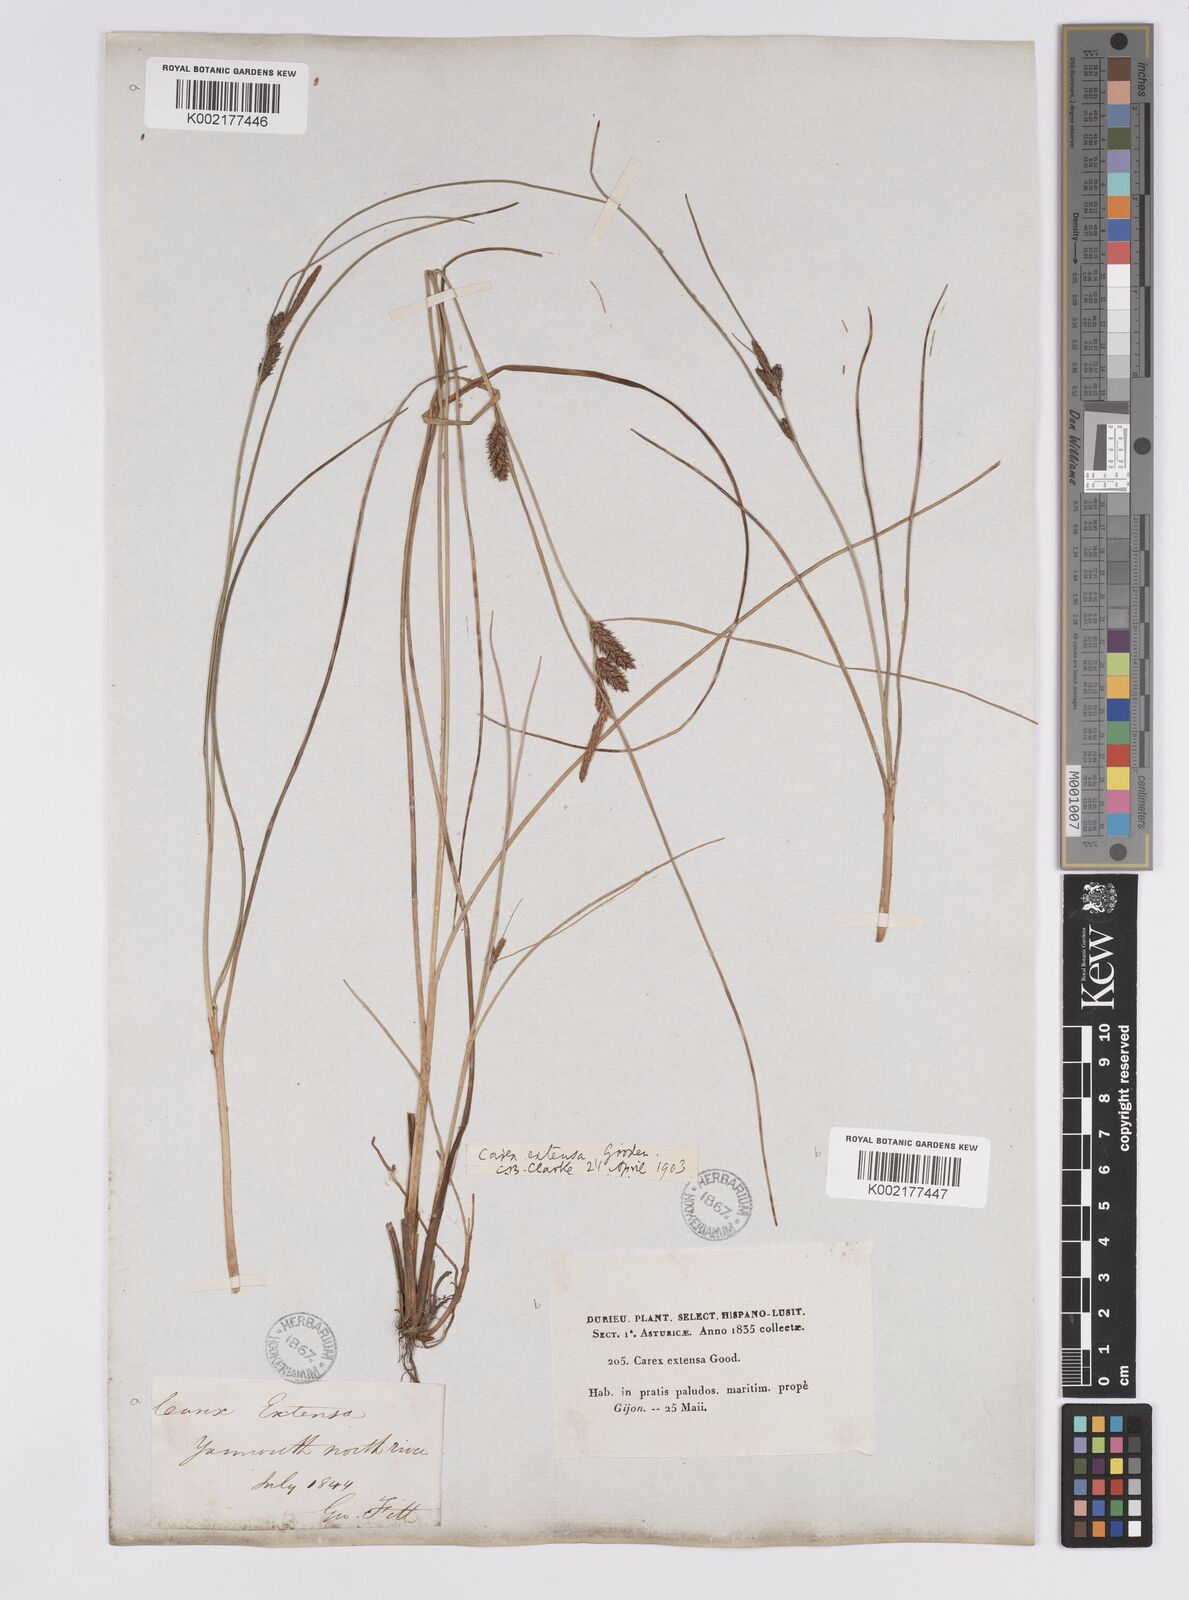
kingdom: Plantae
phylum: Tracheophyta
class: Liliopsida
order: Poales
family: Cyperaceae
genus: Carex
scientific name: Carex extensa
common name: Long-bracted sedge
